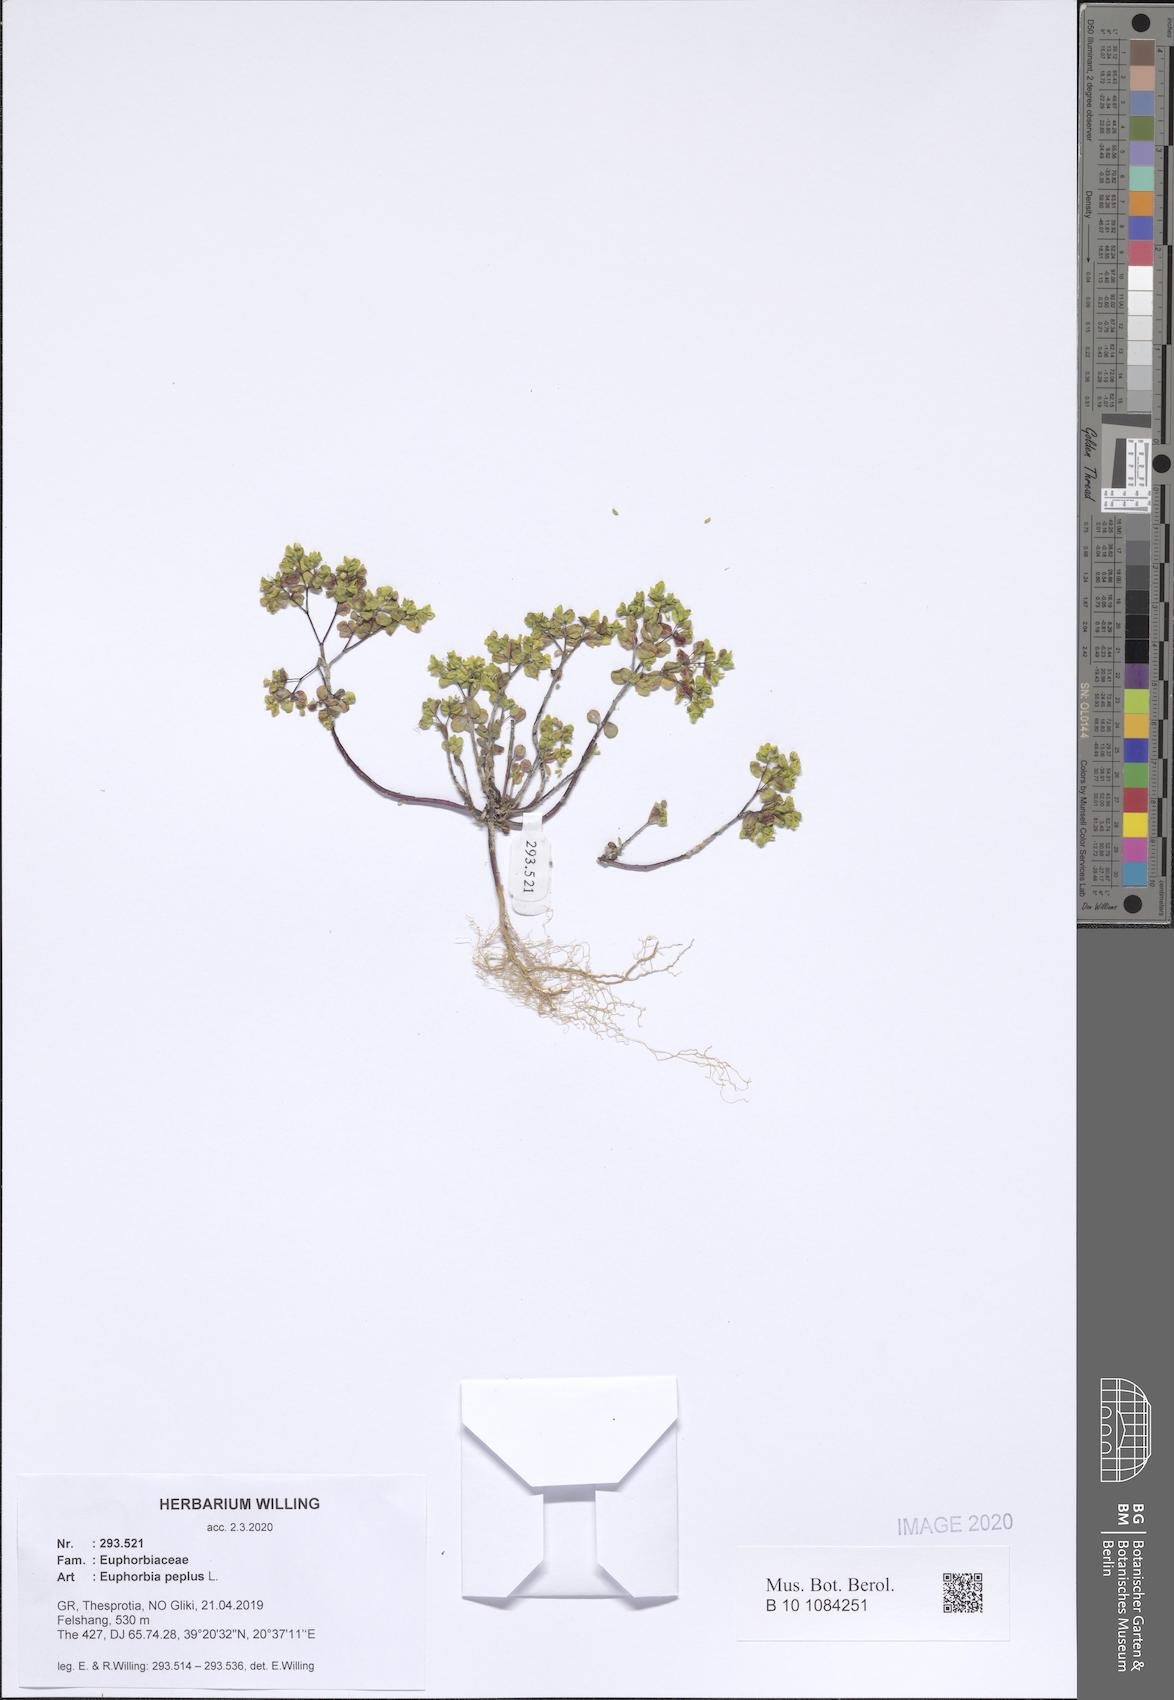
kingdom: Plantae
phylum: Tracheophyta
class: Magnoliopsida
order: Malpighiales
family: Euphorbiaceae
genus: Euphorbia
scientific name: Euphorbia peplus
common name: Petty spurge
